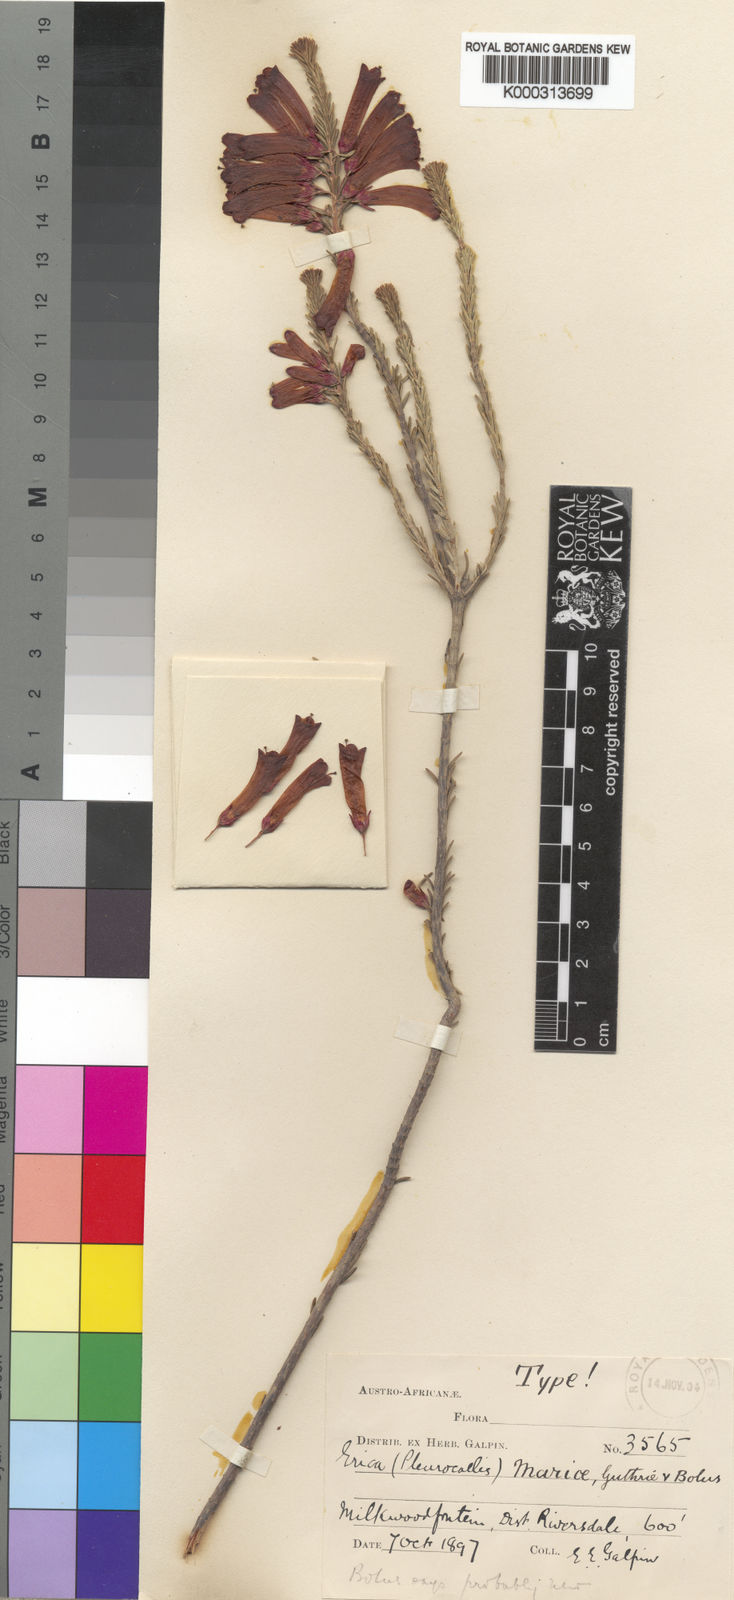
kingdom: Plantae
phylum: Tracheophyta
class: Magnoliopsida
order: Ericales
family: Ericaceae
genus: Erica
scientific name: Erica regia
